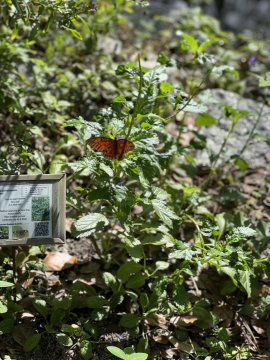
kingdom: Animalia
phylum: Arthropoda
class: Insecta
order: Lepidoptera
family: Nymphalidae
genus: Dione
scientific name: Dione vanillae
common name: Gulf Fritillary
